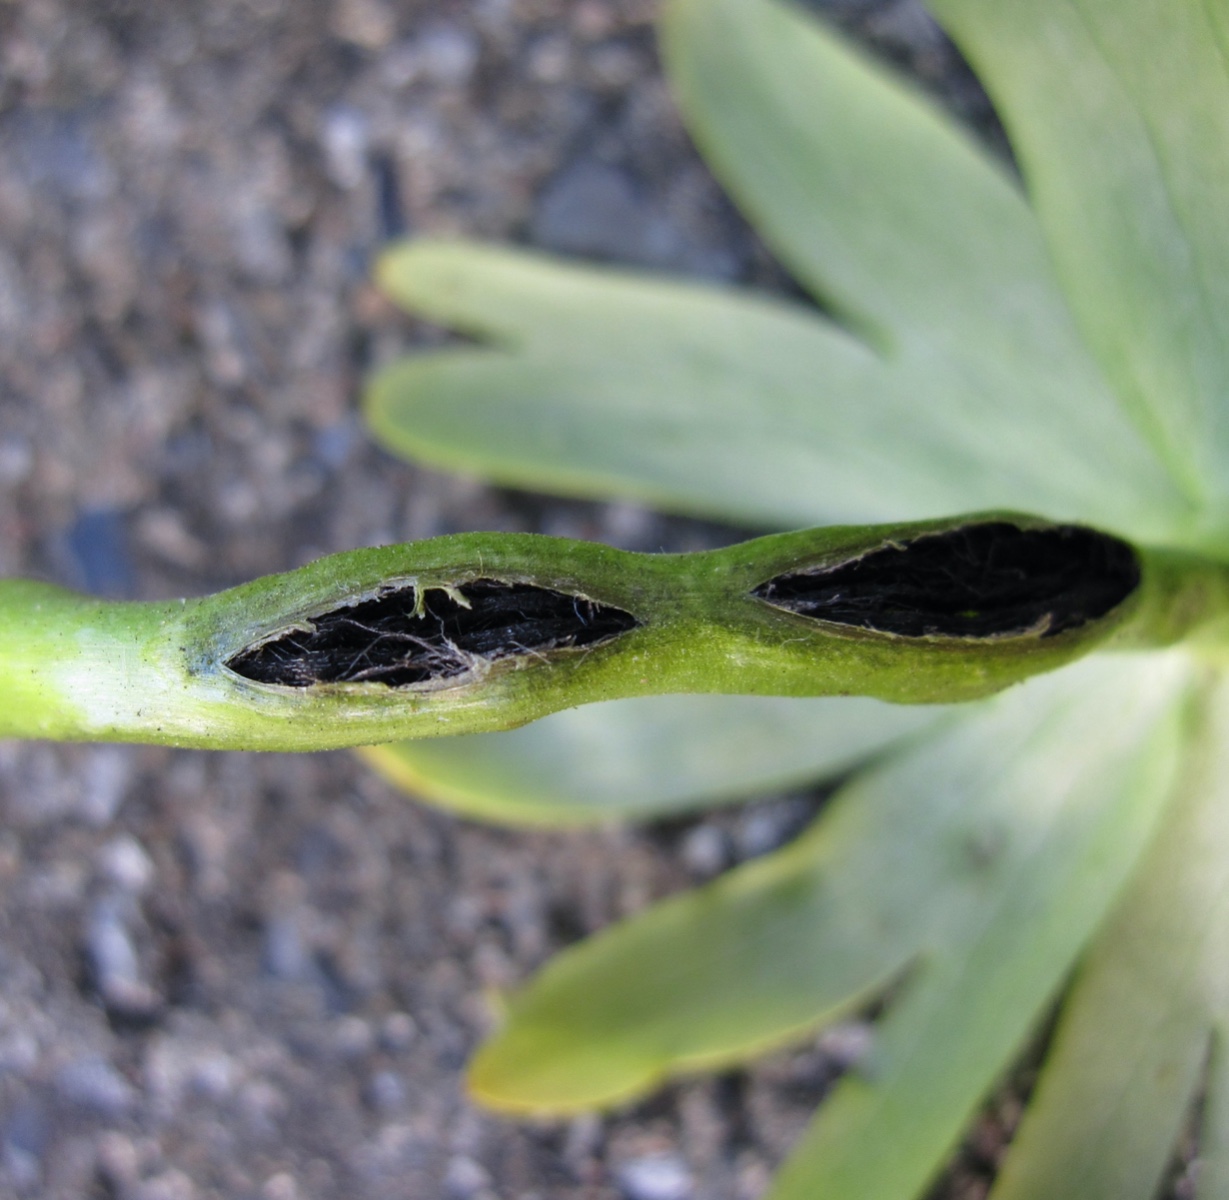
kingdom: Fungi
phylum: Basidiomycota
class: Ustilaginomycetes
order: Urocystidales
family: Urocystidaceae
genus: Urocystis
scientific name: Urocystis eranthidis
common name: erantis-brand
